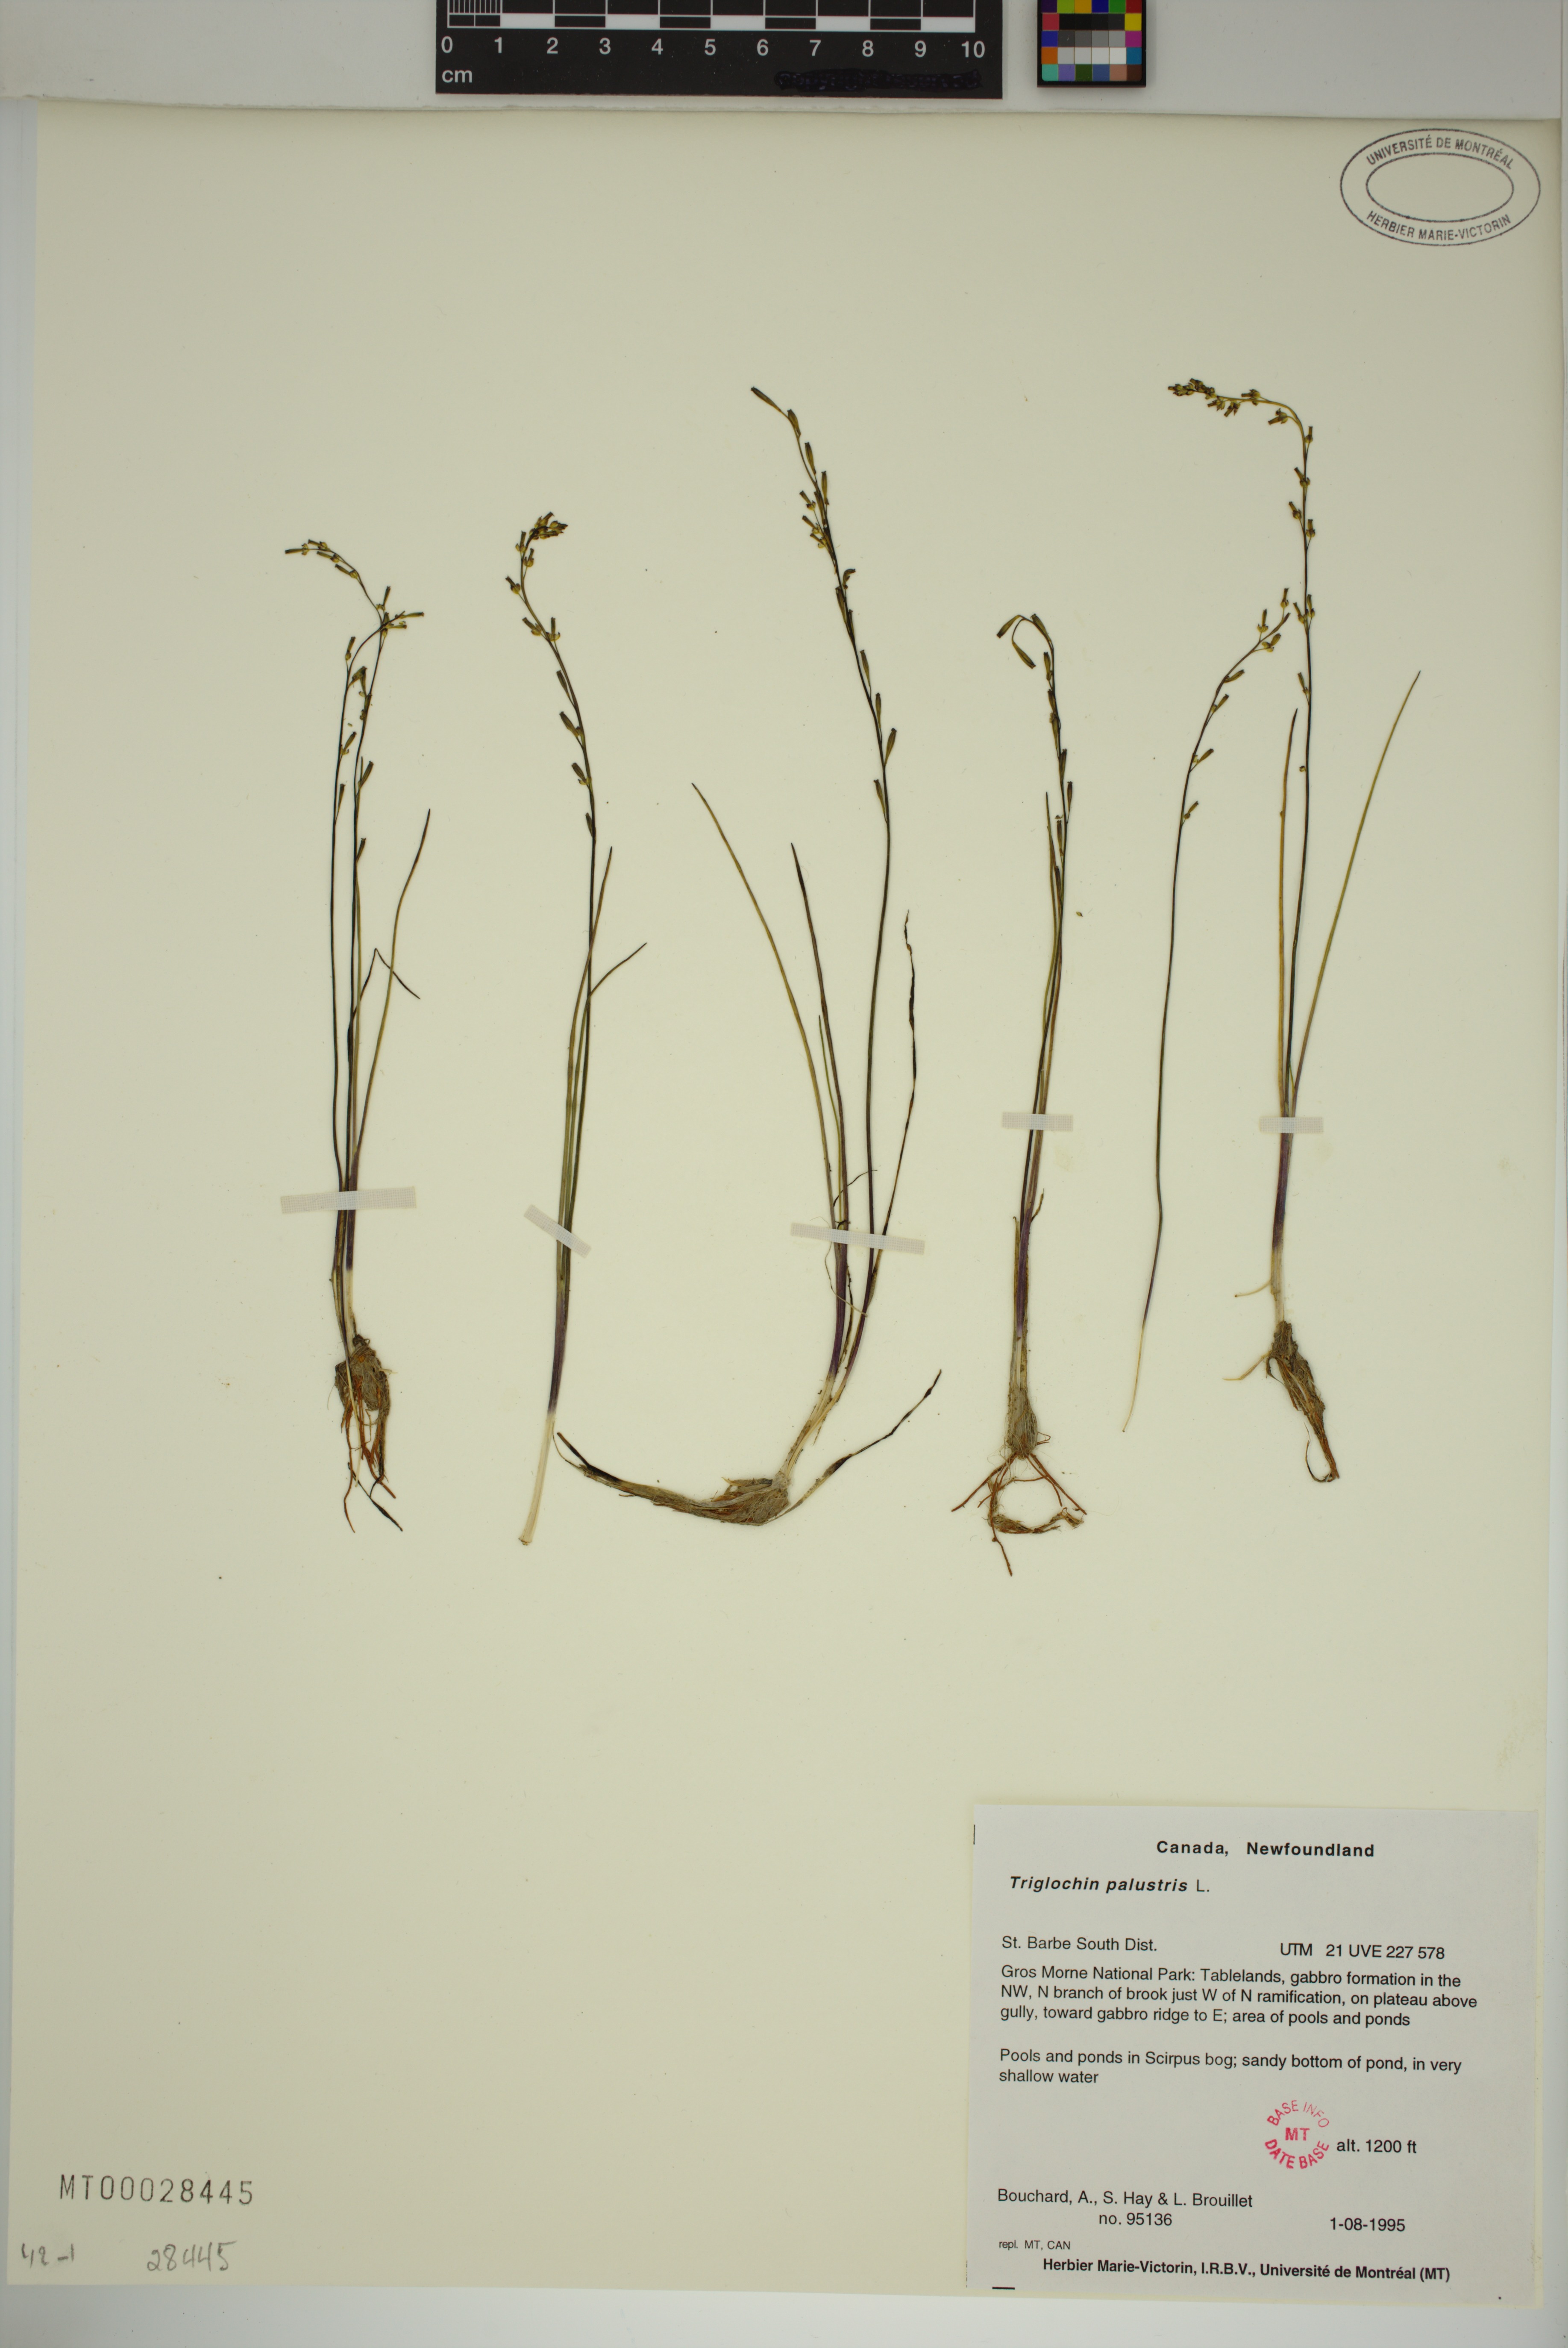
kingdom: Plantae
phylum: Tracheophyta
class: Liliopsida
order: Alismatales
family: Juncaginaceae
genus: Triglochin
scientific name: Triglochin palustris
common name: Marsh arrowgrass
